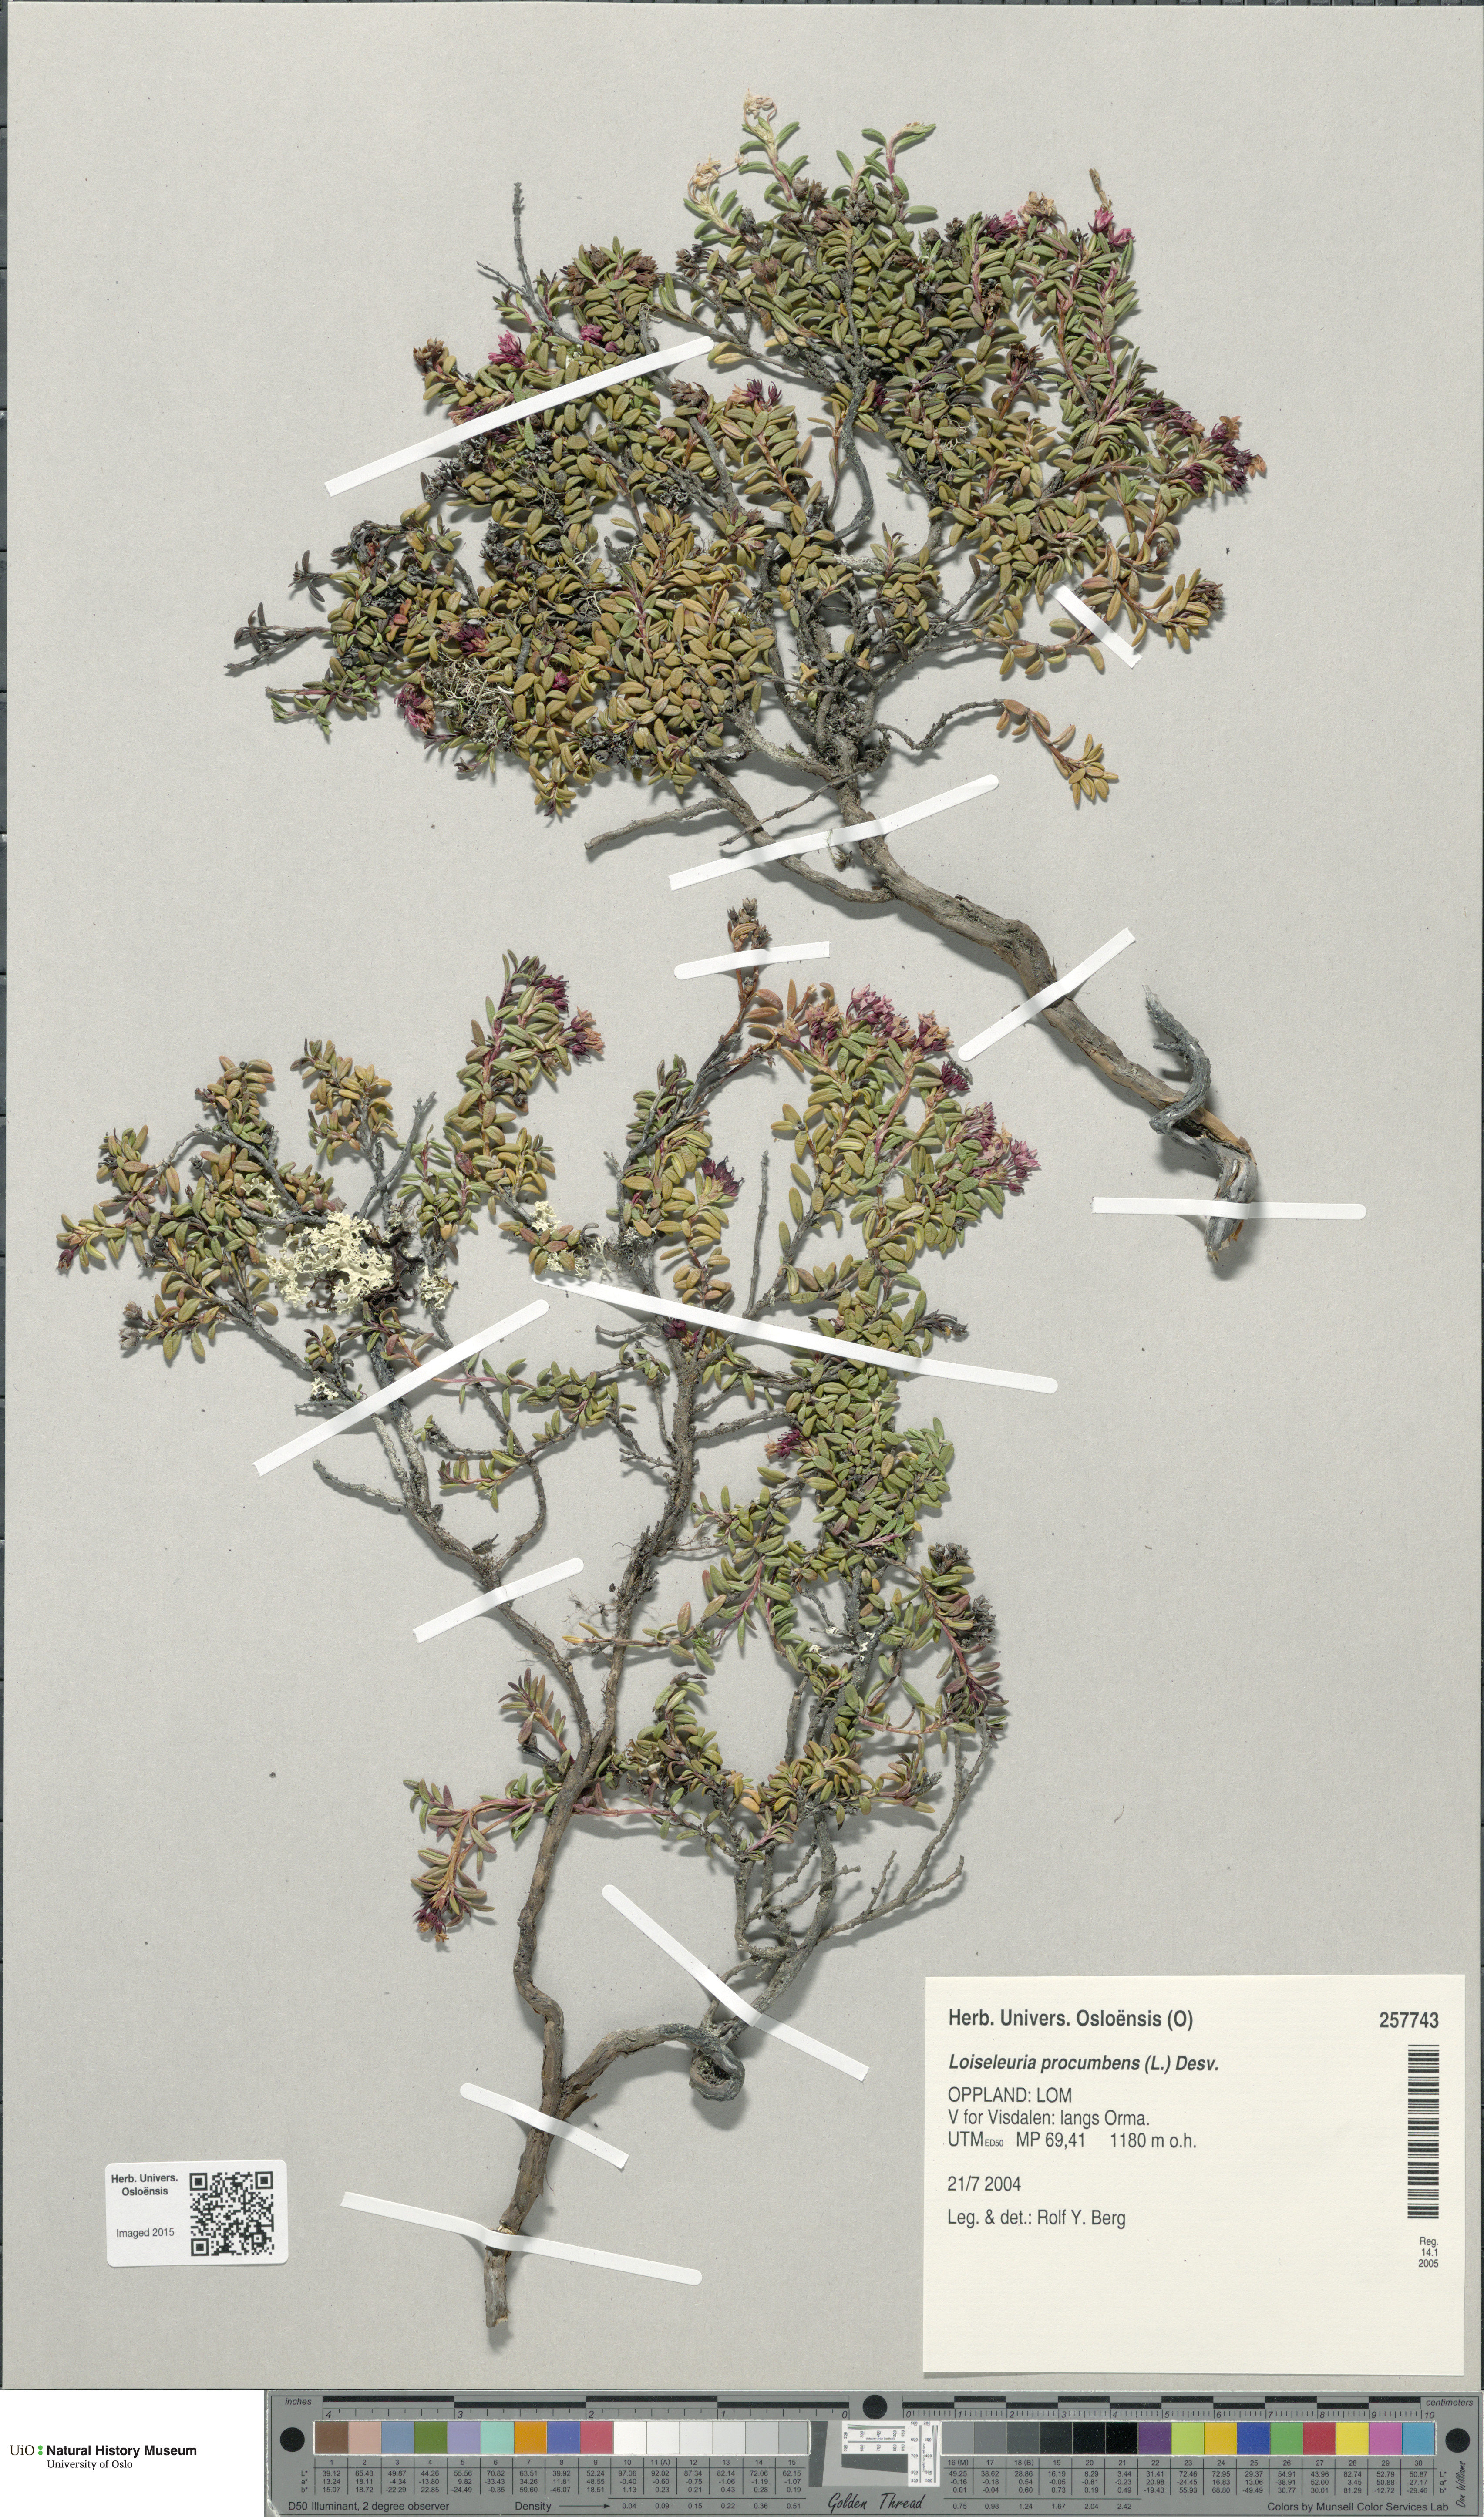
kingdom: Plantae
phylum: Tracheophyta
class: Magnoliopsida
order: Ericales
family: Ericaceae
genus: Kalmia
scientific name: Kalmia procumbens
